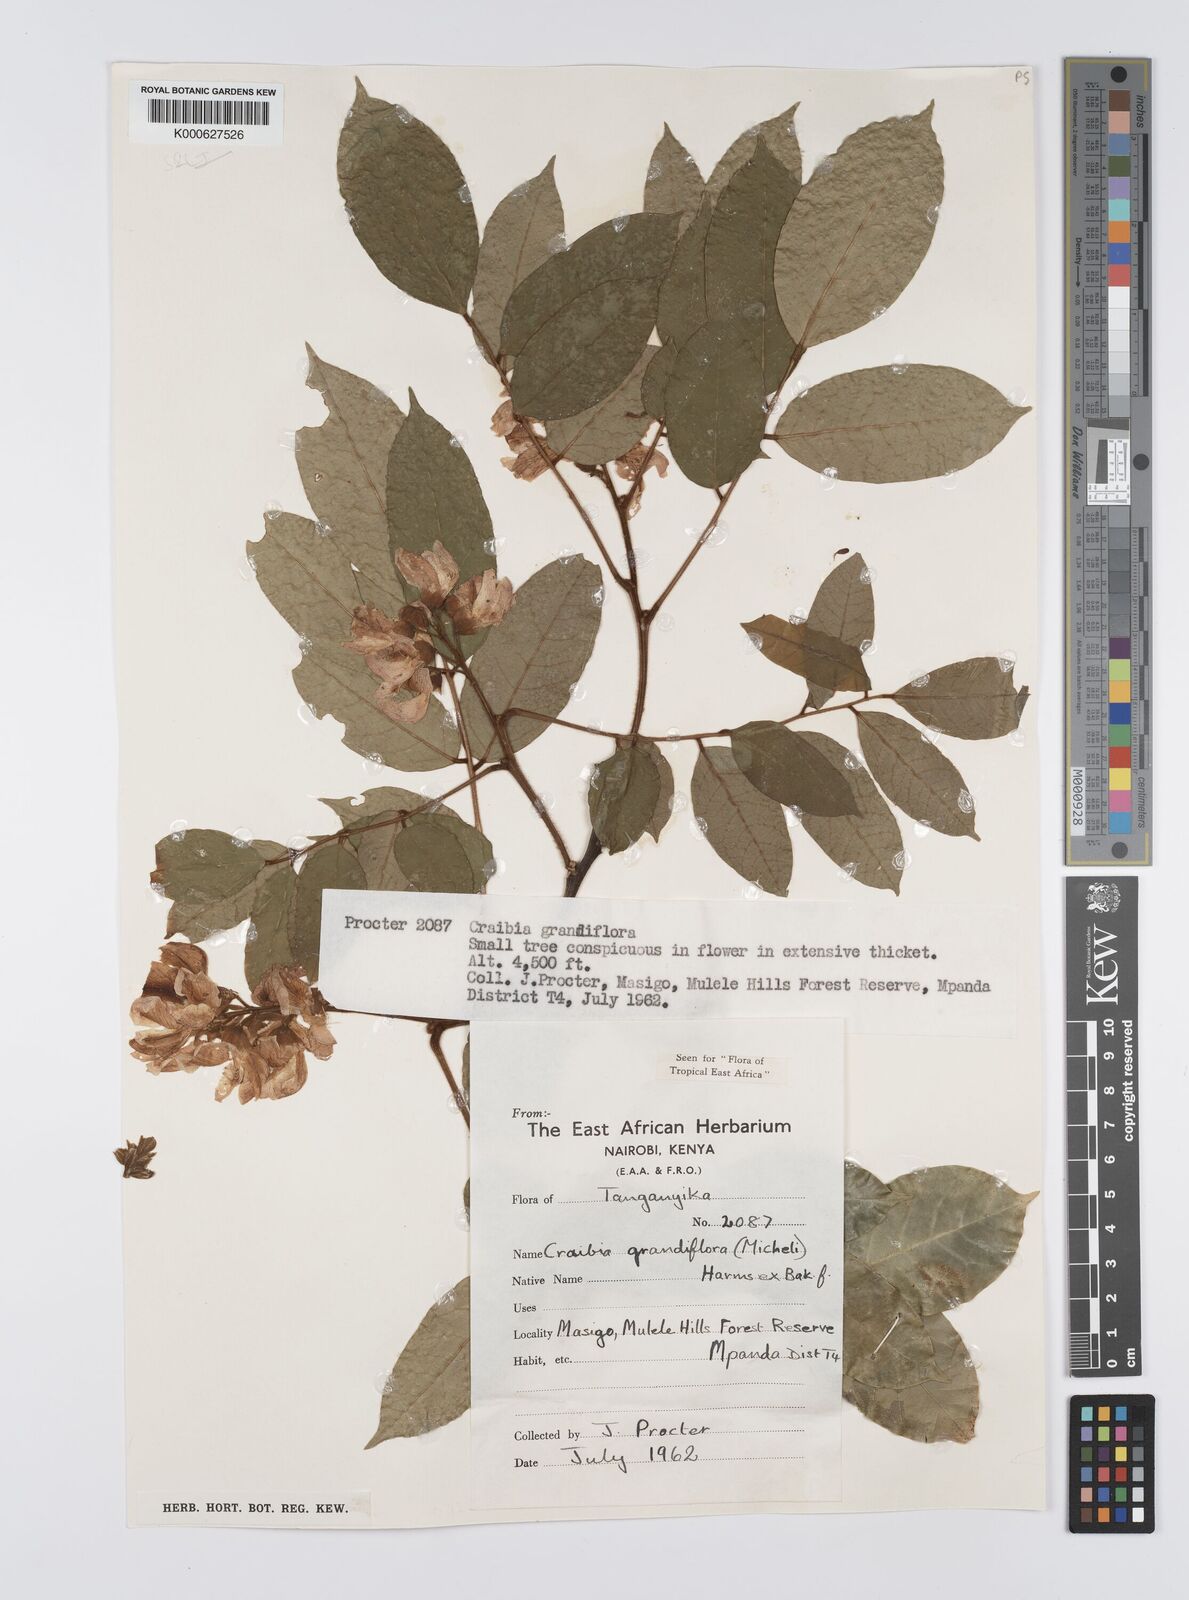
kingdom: Plantae
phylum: Tracheophyta
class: Magnoliopsida
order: Fabales
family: Fabaceae
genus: Craibia
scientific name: Craibia grandiflora
